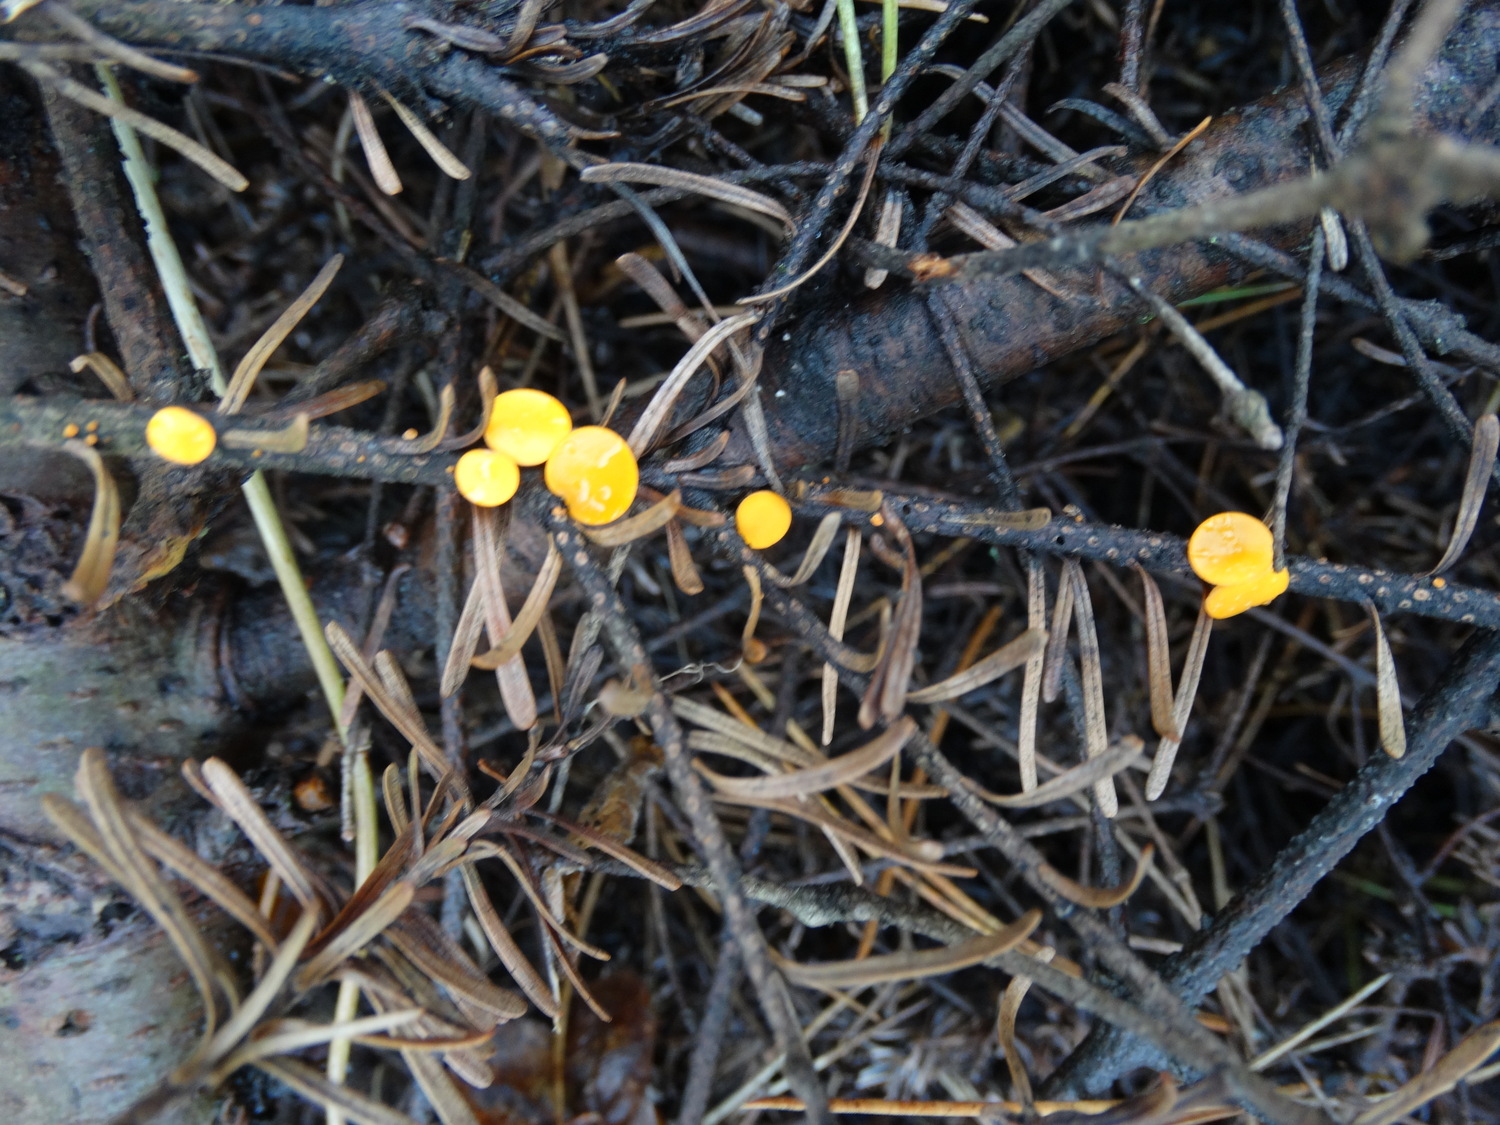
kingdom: Fungi
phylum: Ascomycota
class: Pezizomycetes
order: Pezizales
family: Sarcoscyphaceae
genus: Pithya
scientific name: Pithya vulgaris
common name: stor dukatbæger
